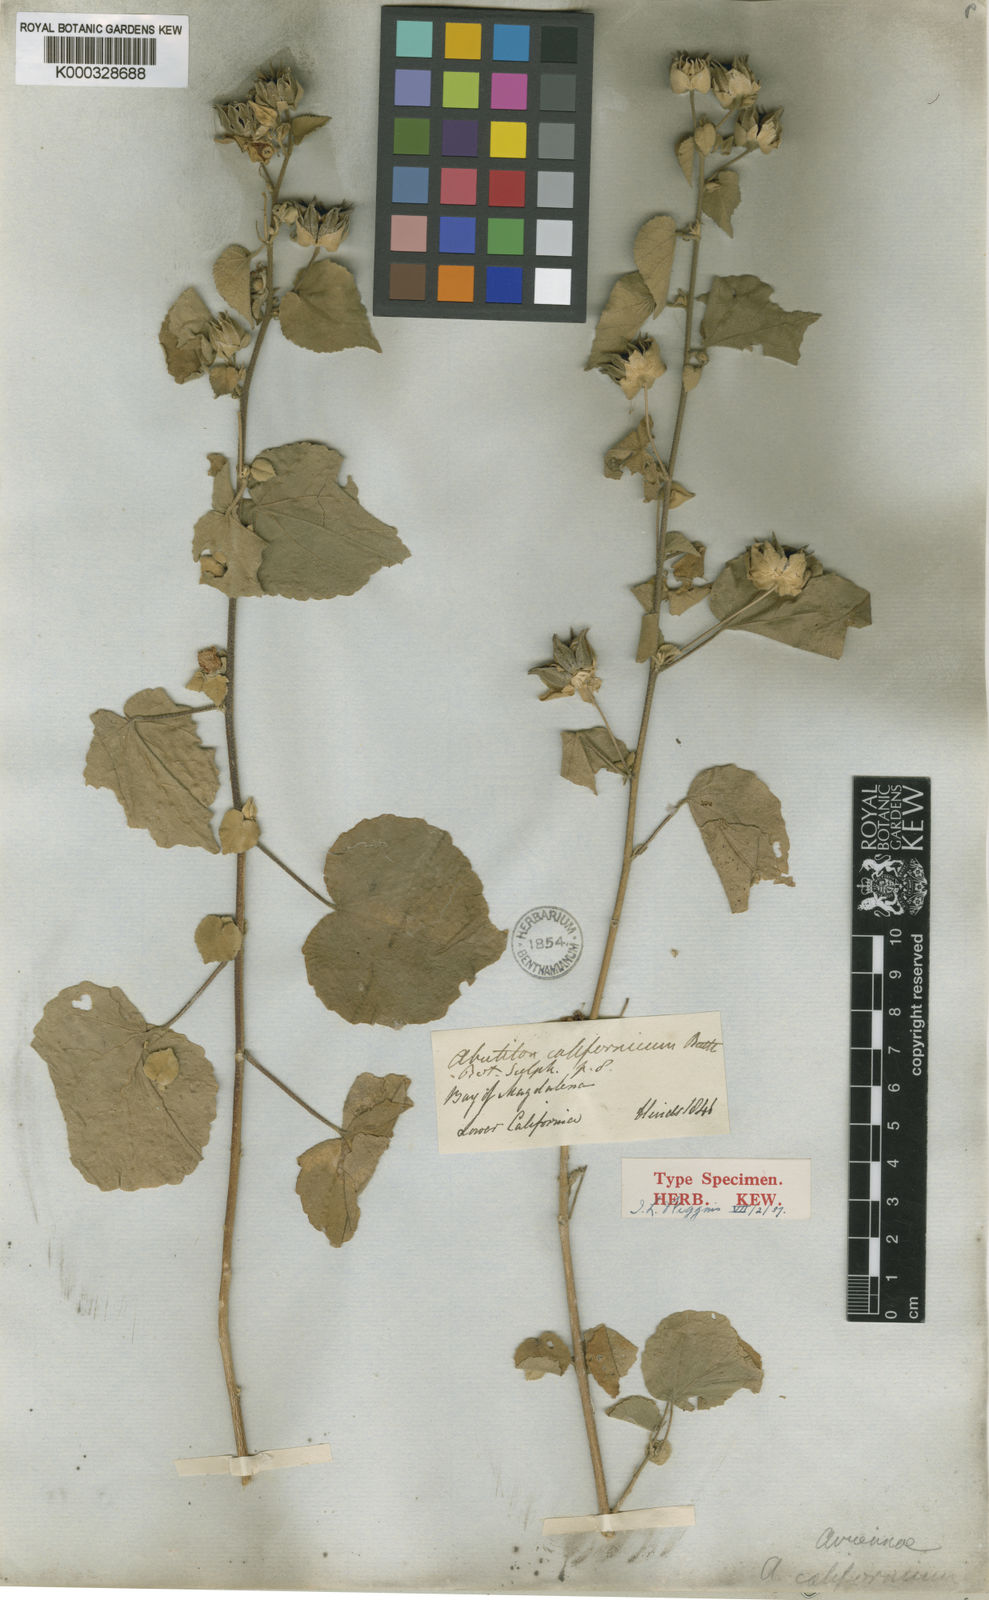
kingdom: Plantae
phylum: Tracheophyta
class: Magnoliopsida
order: Malvales
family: Malvaceae
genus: Abutilon
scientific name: Abutilon californicum
